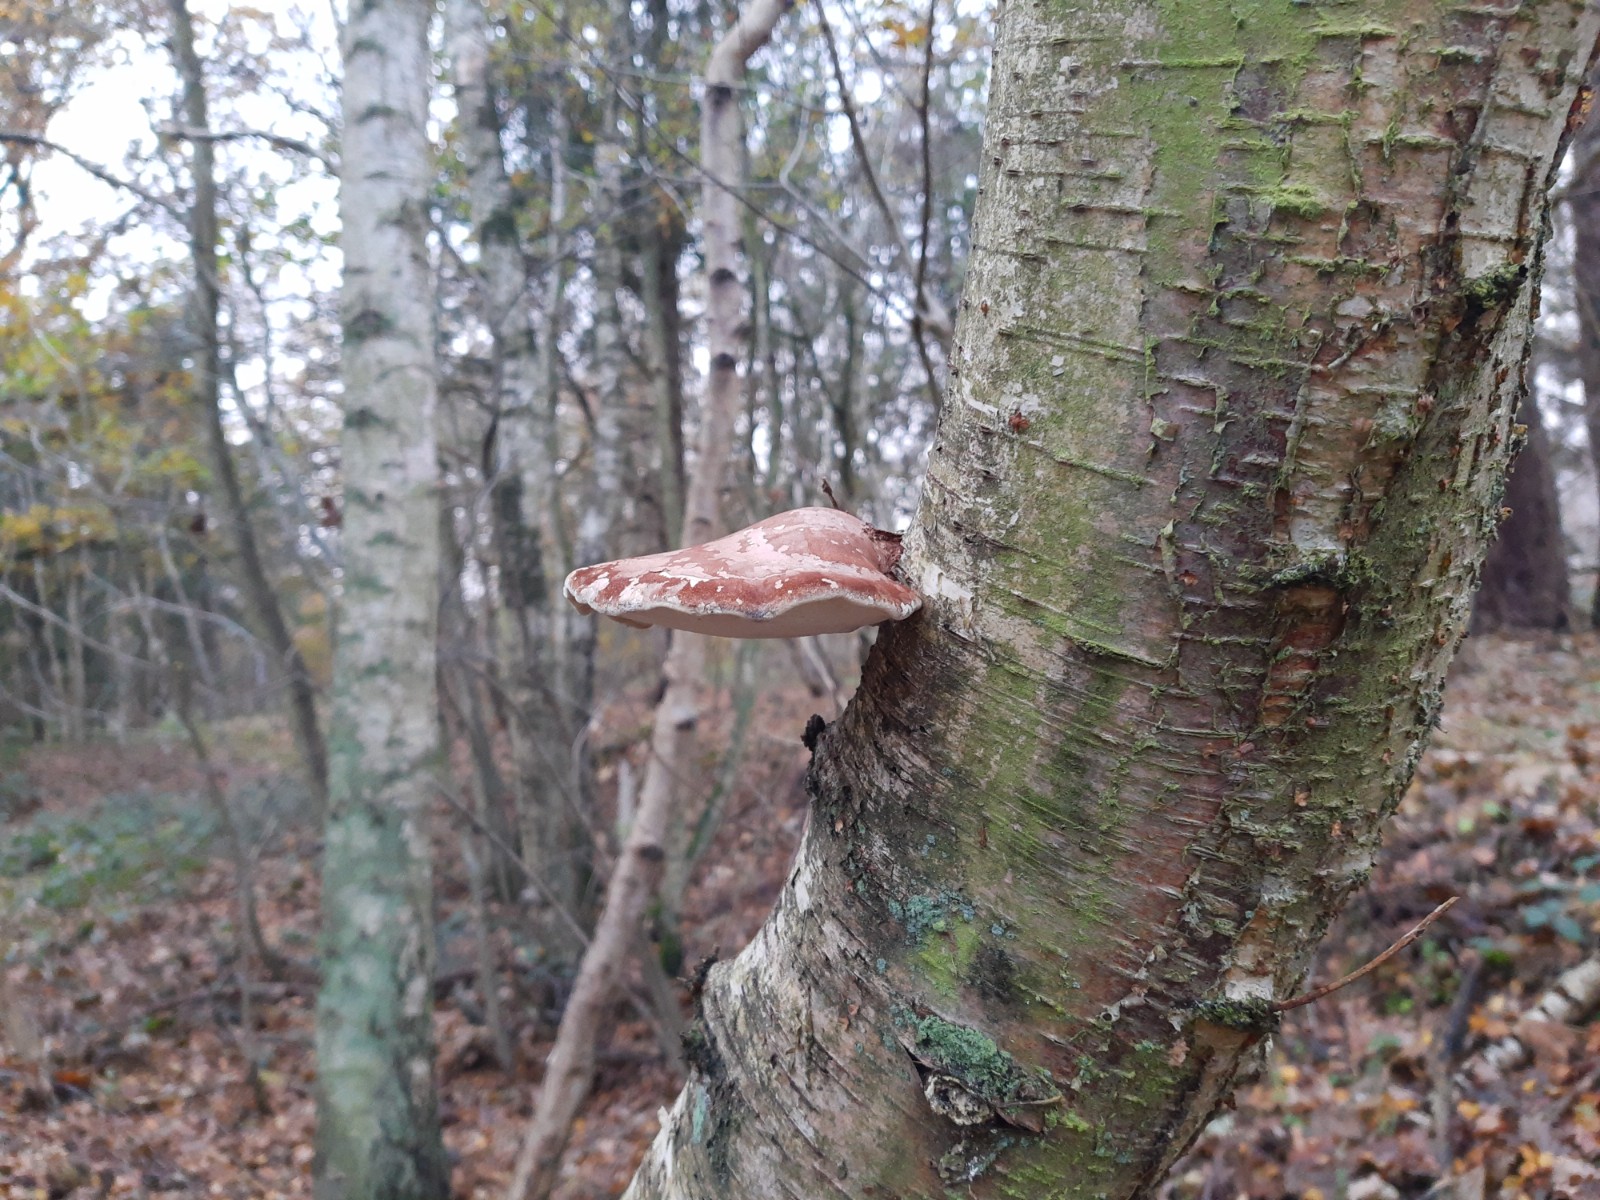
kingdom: Fungi
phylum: Basidiomycota
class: Agaricomycetes
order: Polyporales
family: Fomitopsidaceae
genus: Fomitopsis
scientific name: Fomitopsis betulina
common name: birkeporesvamp
